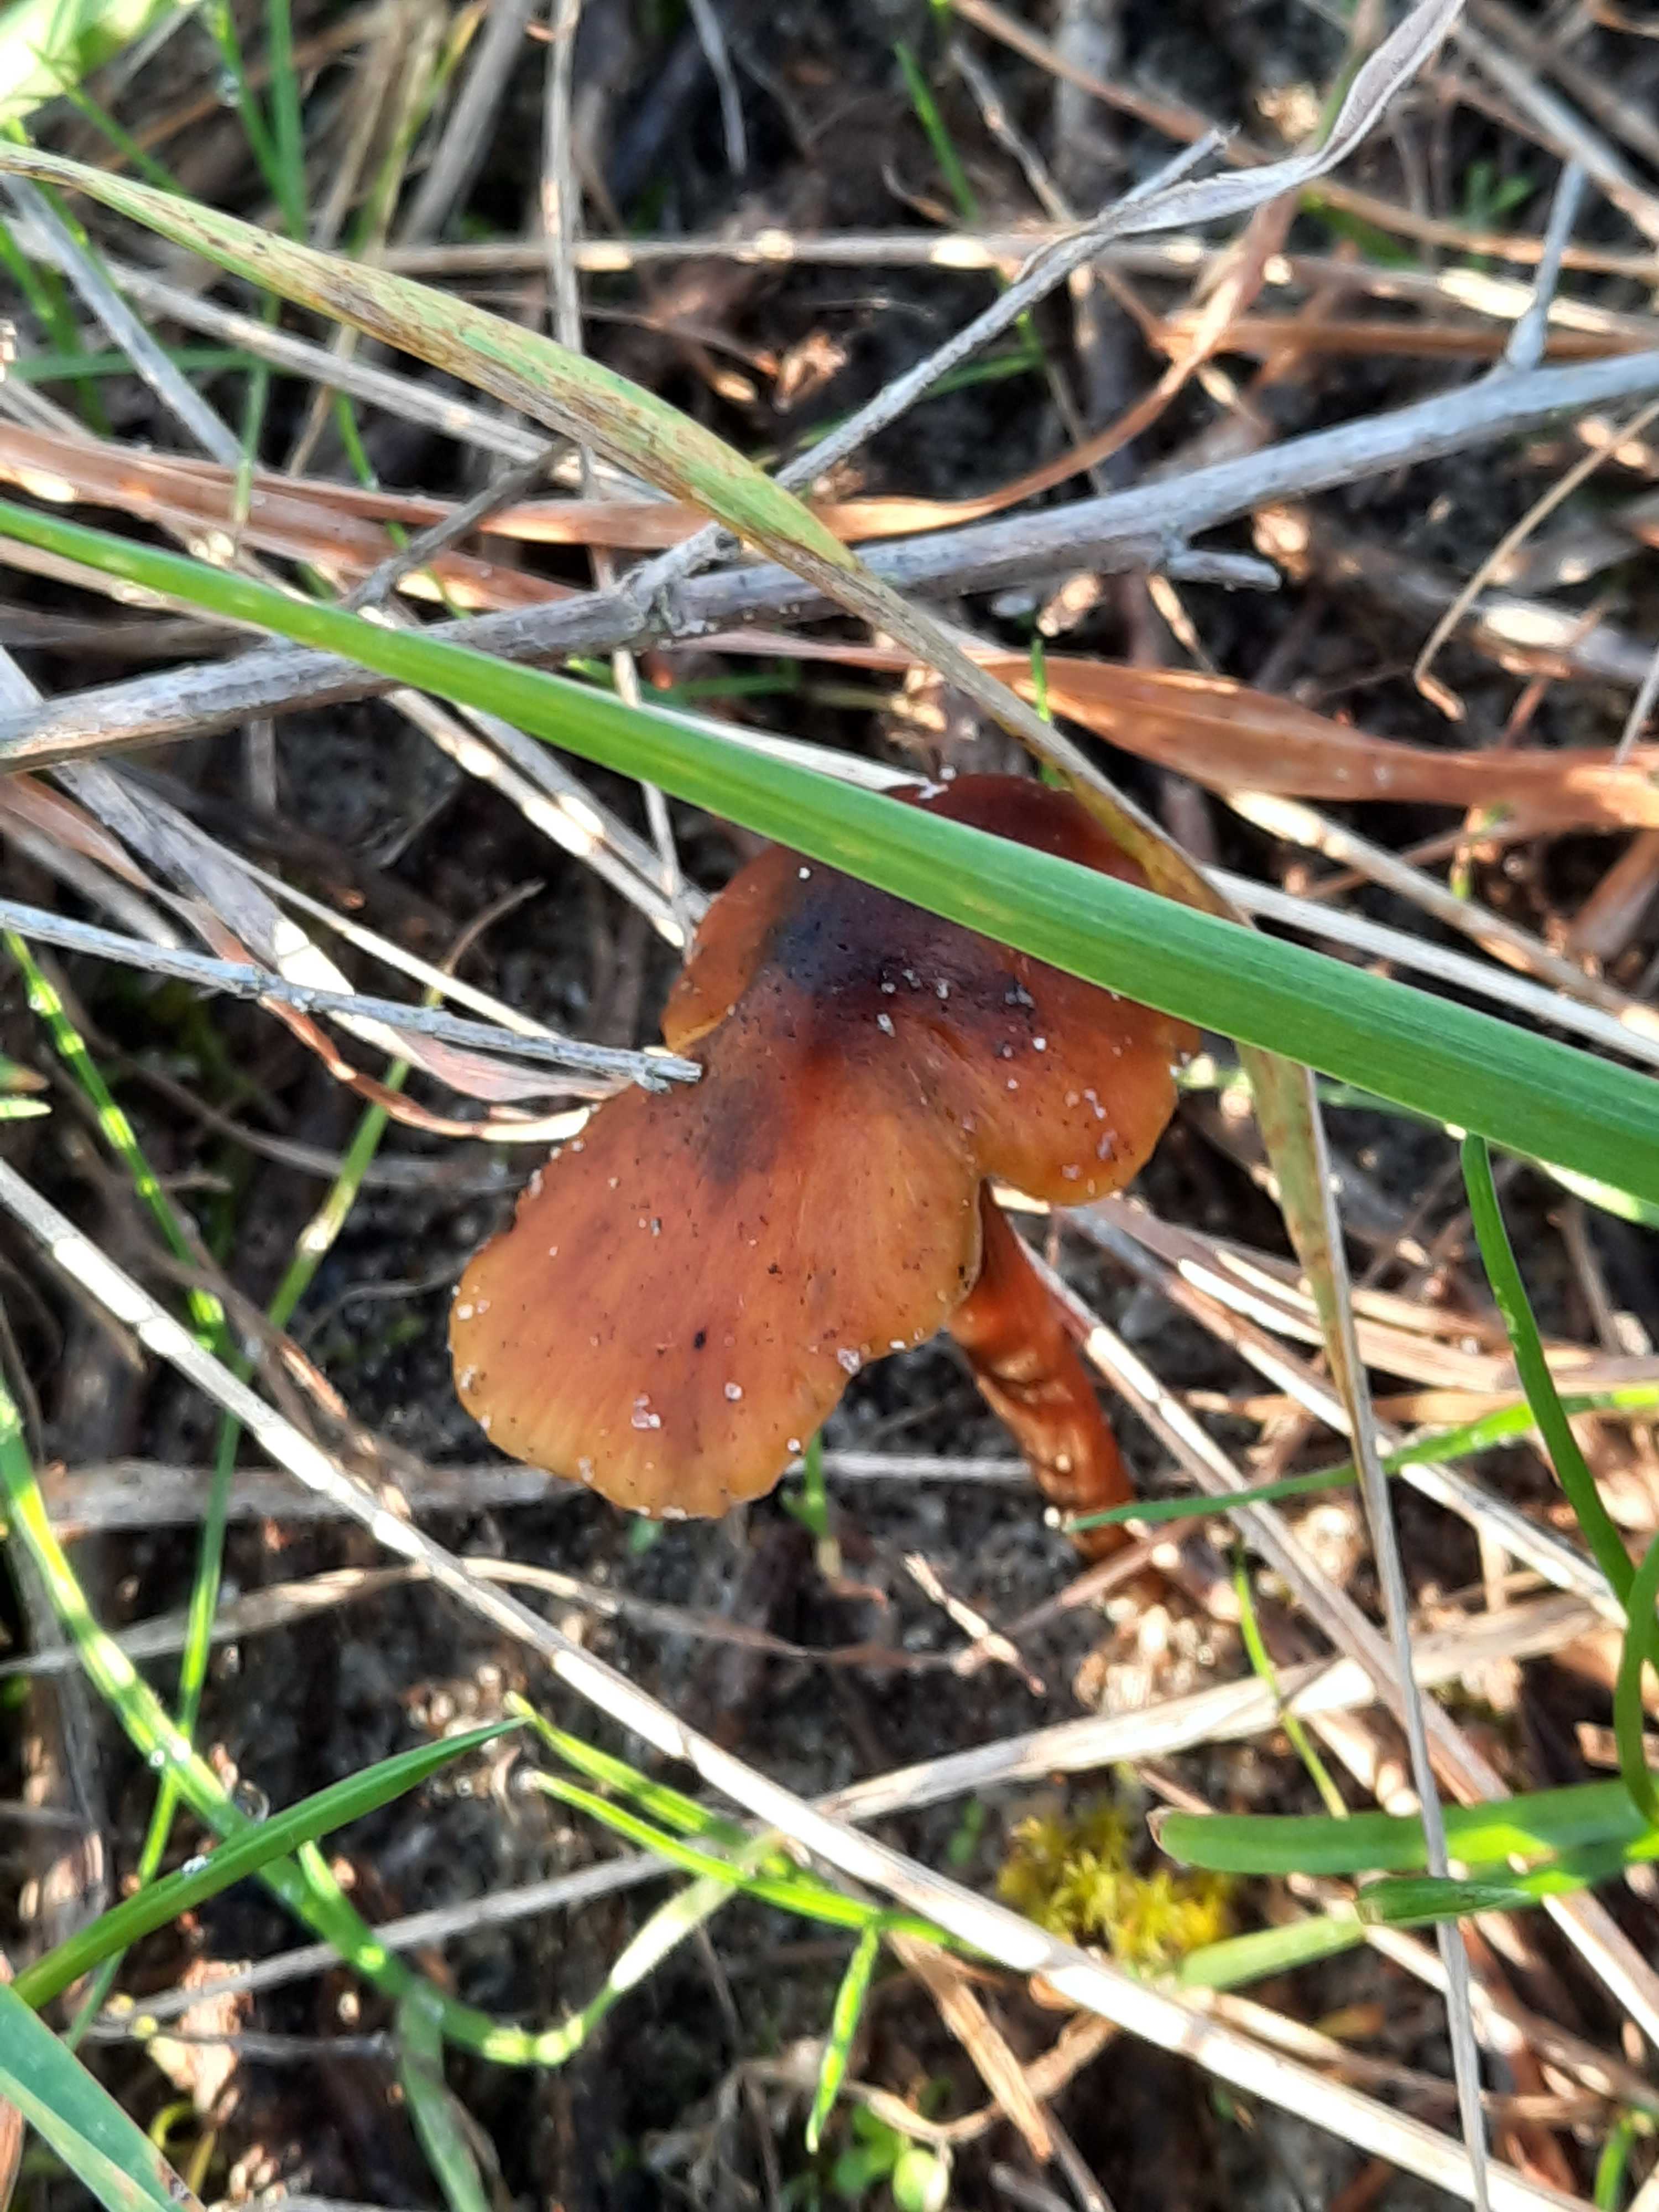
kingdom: Fungi
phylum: Basidiomycota
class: Agaricomycetes
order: Agaricales
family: Hygrophoraceae
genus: Hygrocybe
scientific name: Hygrocybe conica
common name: kegle-vokshat
